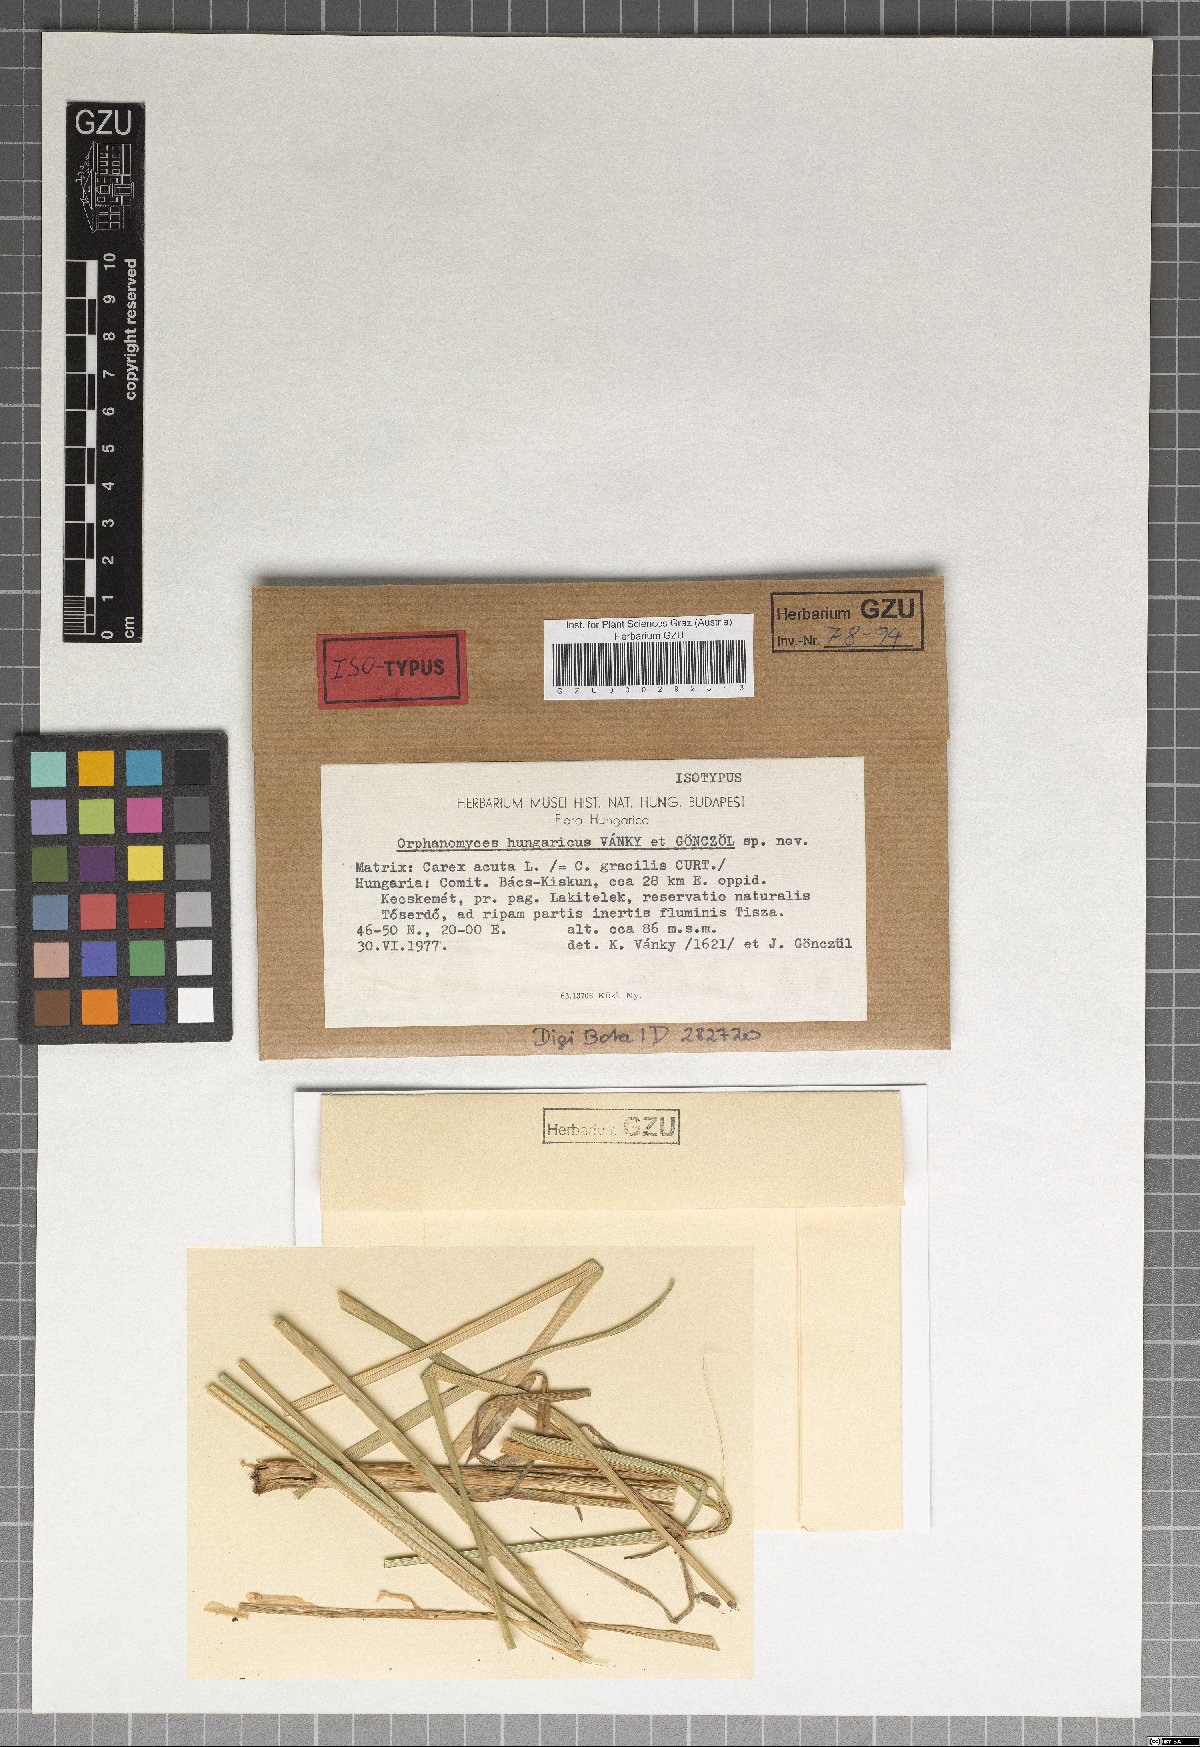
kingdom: Fungi
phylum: Basidiomycota
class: Ustilaginomycetes
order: Ustilaginales
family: Anthracoideaceae
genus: Orphanomyces
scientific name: Orphanomyces hungaricus
